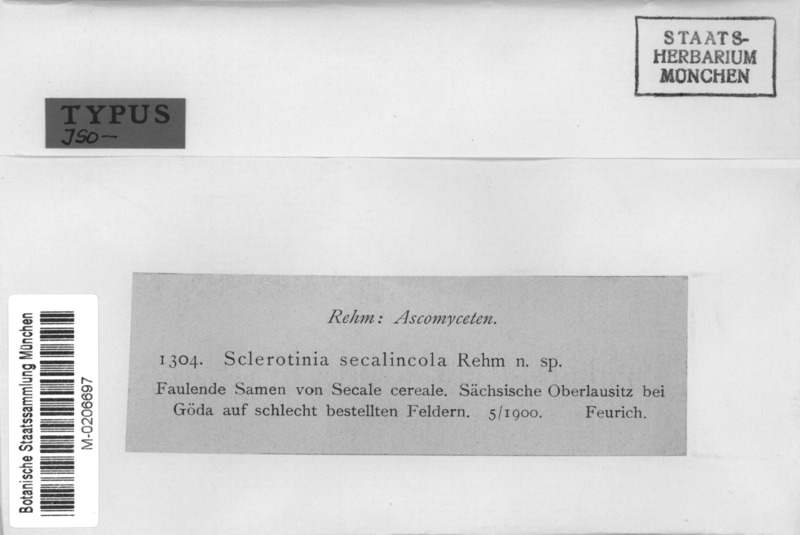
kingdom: Fungi
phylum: Ascomycota
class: Leotiomycetes
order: Helotiales
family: Sclerotiniaceae
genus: Stromatinia
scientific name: Stromatinia secalincola
